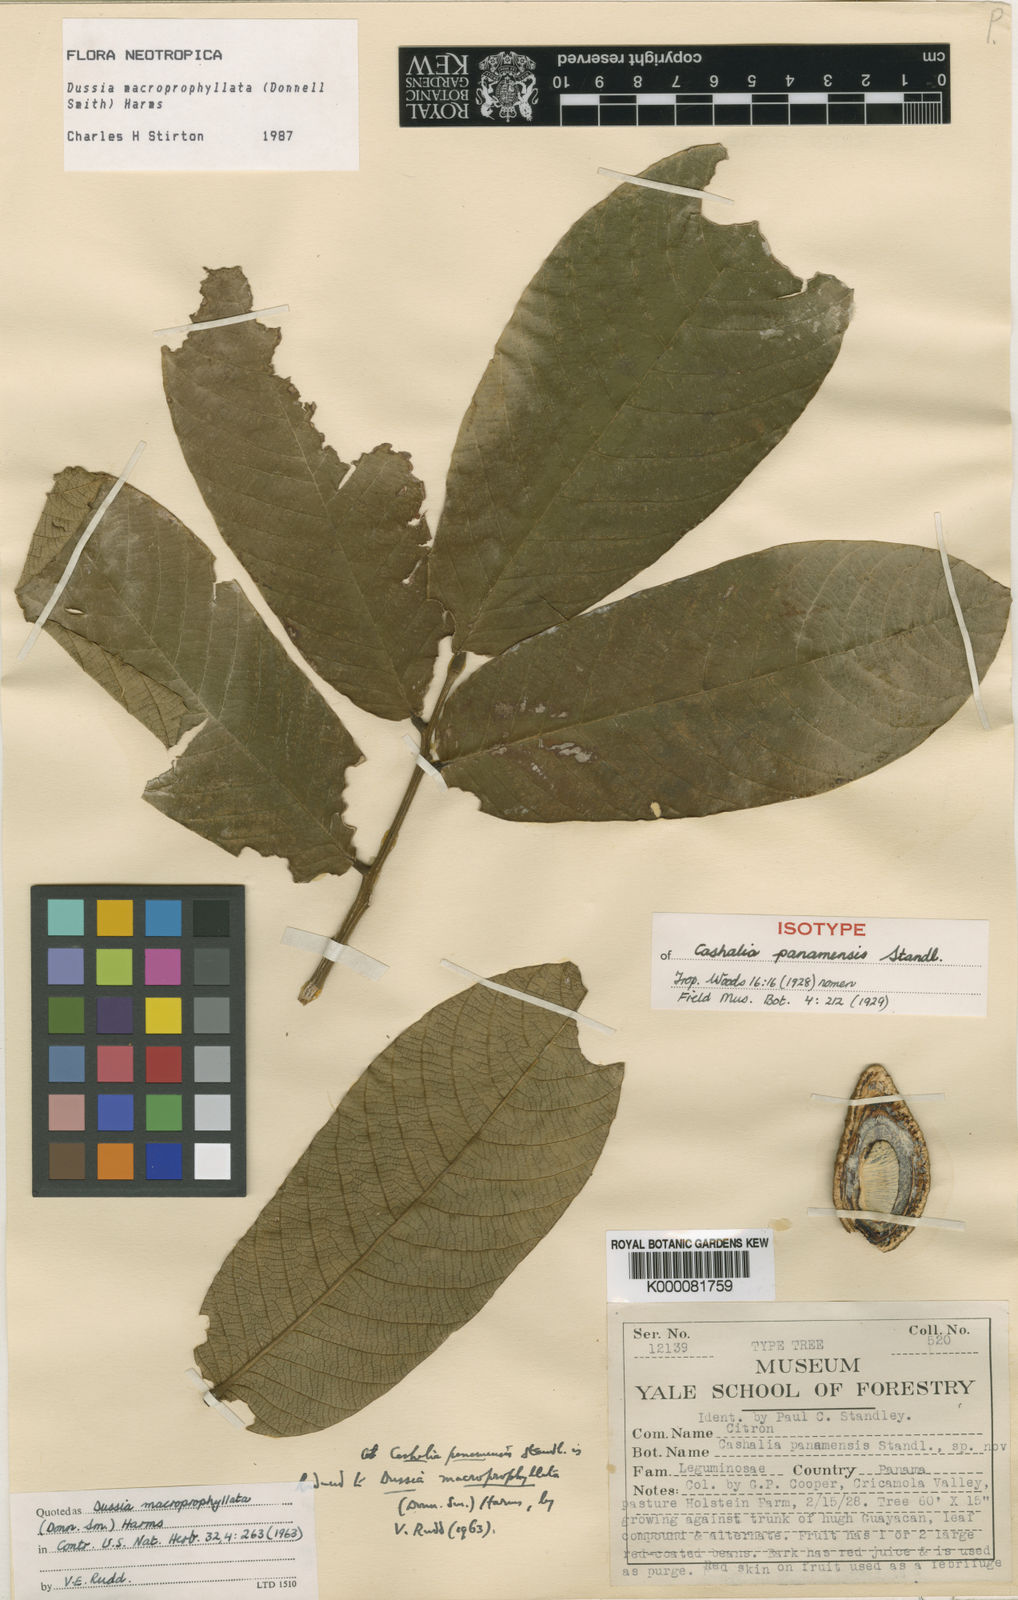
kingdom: Plantae
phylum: Tracheophyta
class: Magnoliopsida
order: Fabales
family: Fabaceae
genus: Dussia
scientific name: Dussia macroprophyllata
